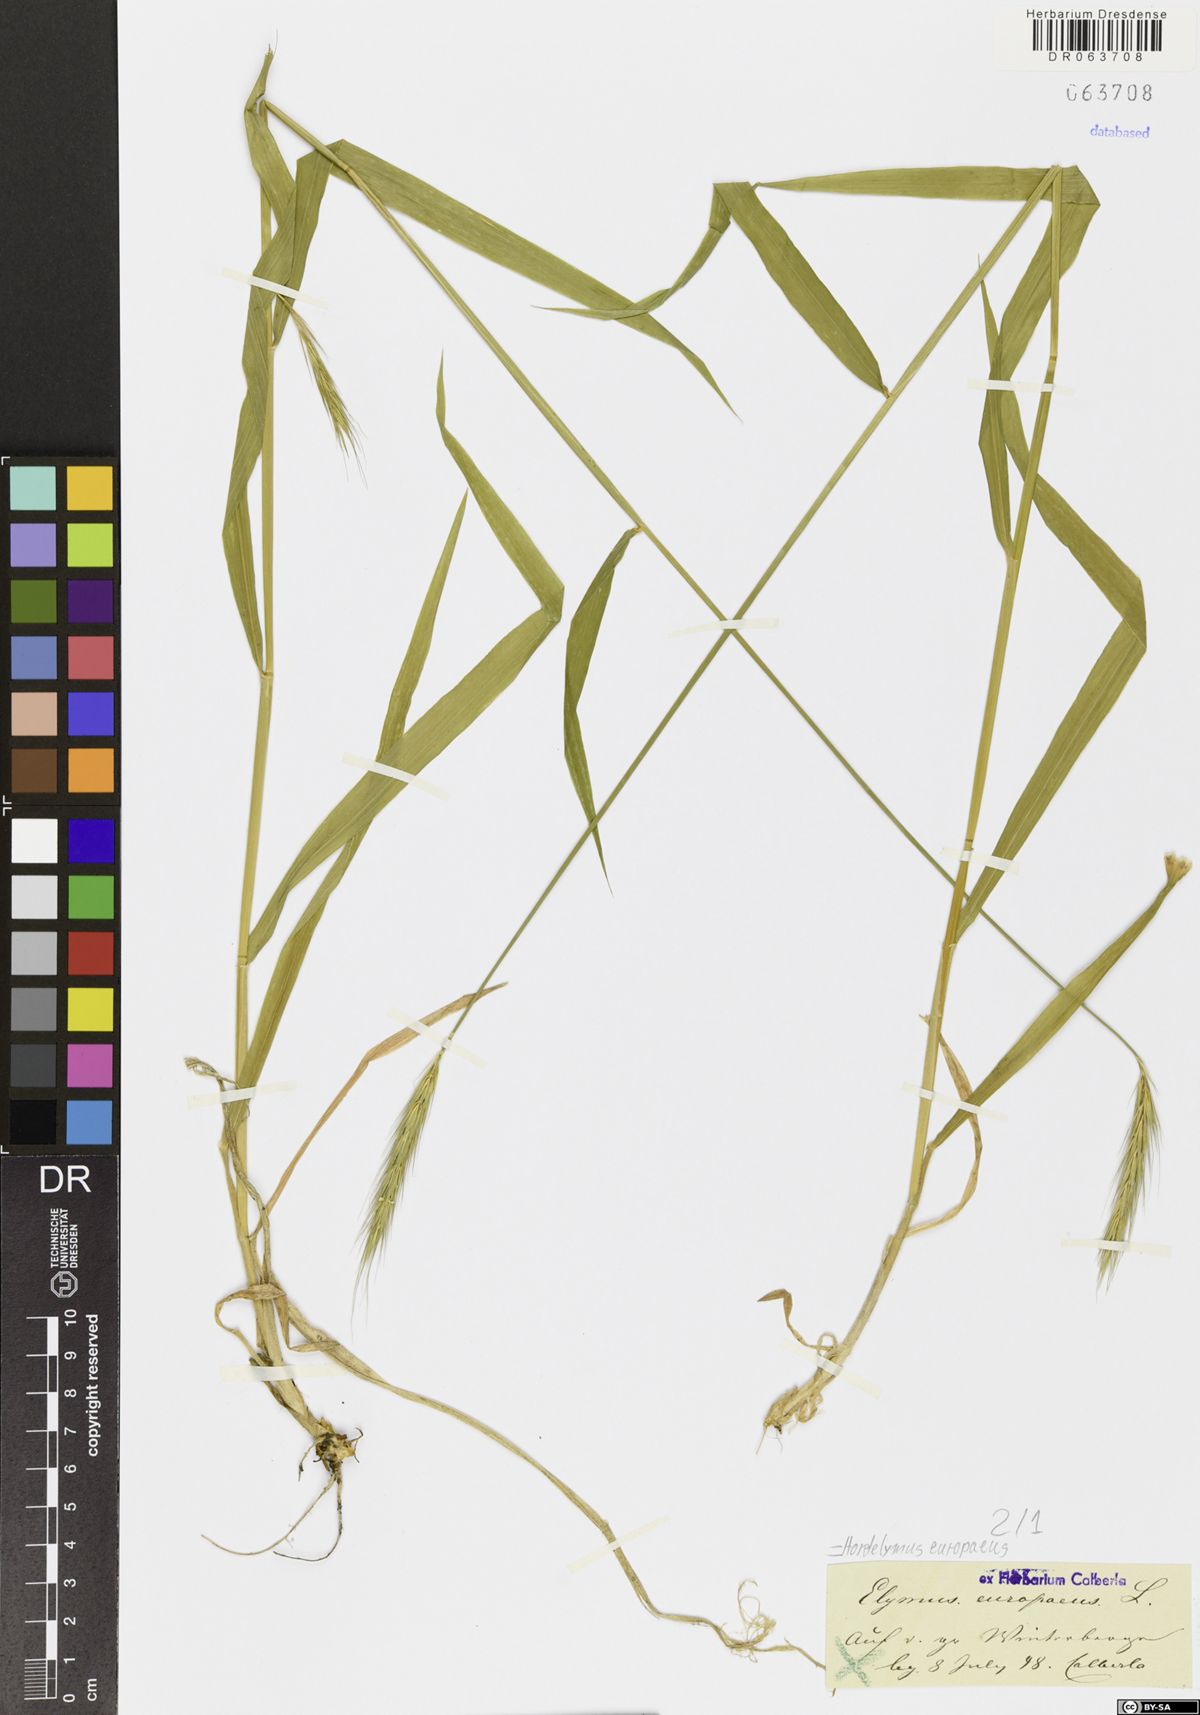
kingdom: Plantae
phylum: Tracheophyta
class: Liliopsida
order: Poales
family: Poaceae
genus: Hordelymus
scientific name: Hordelymus europaeus
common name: Wood-barley
